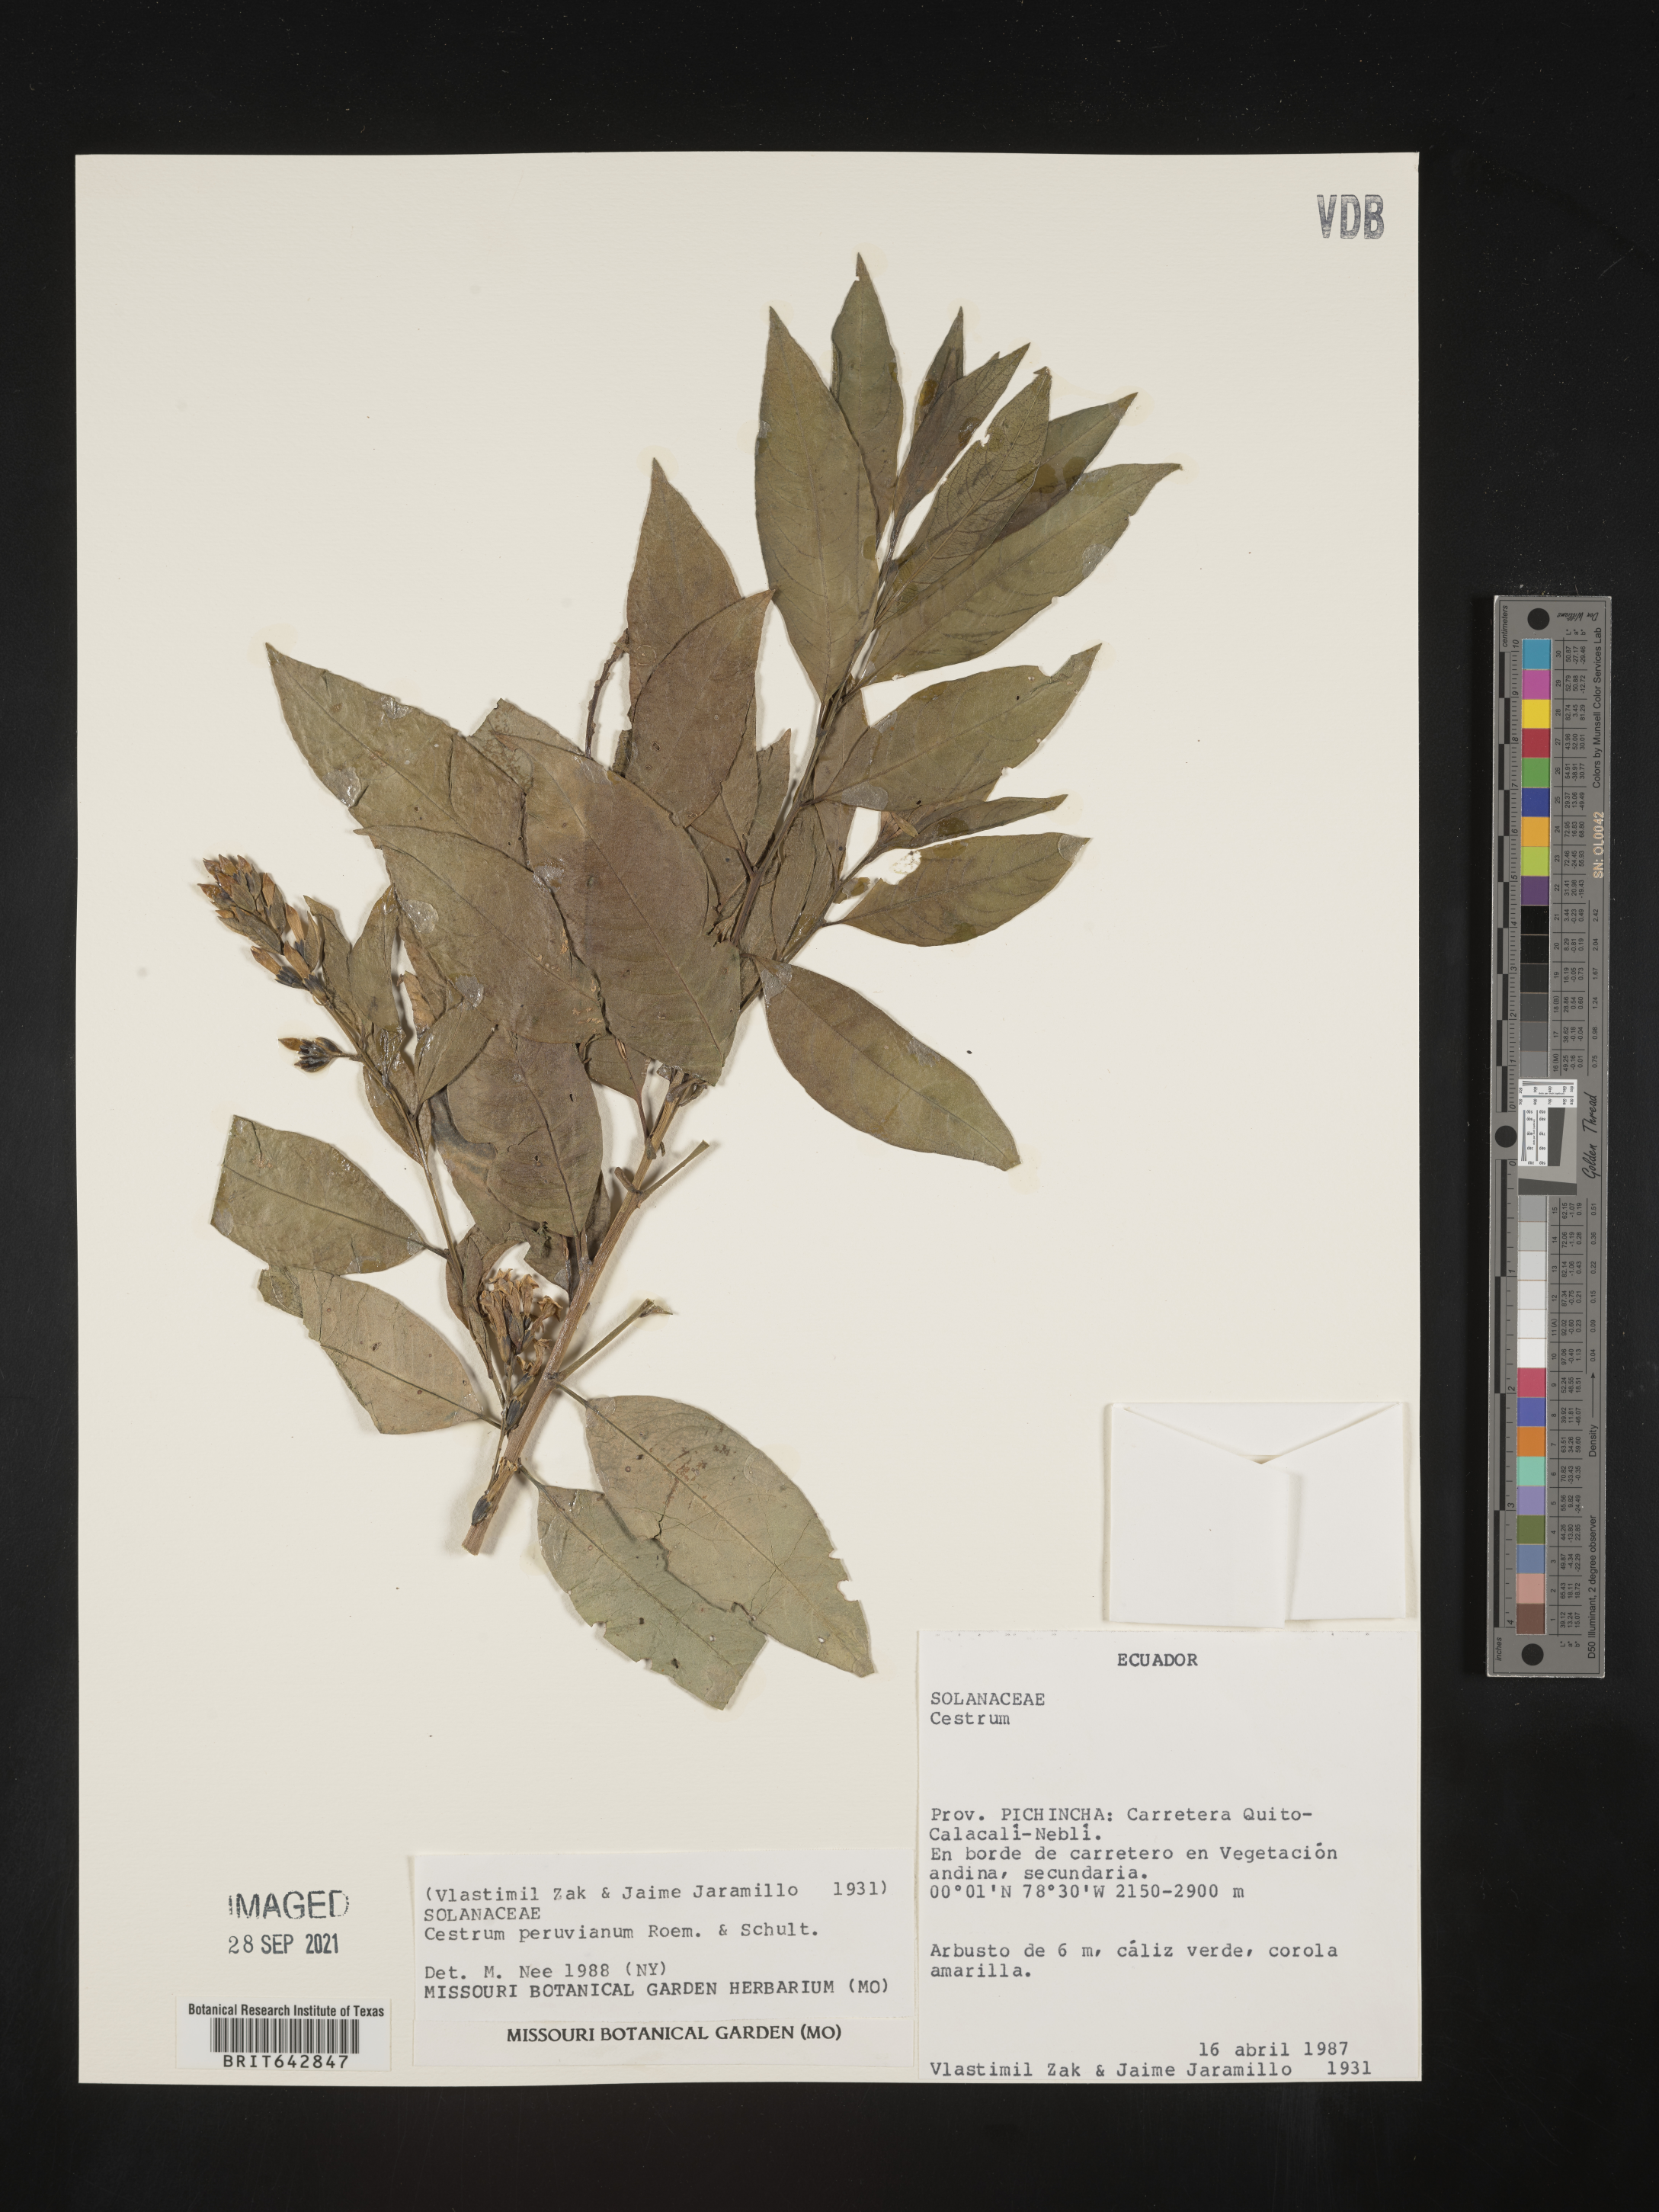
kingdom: Plantae
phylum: Tracheophyta
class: Magnoliopsida
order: Solanales
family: Solanaceae
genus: Cestrum
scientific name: Cestrum
